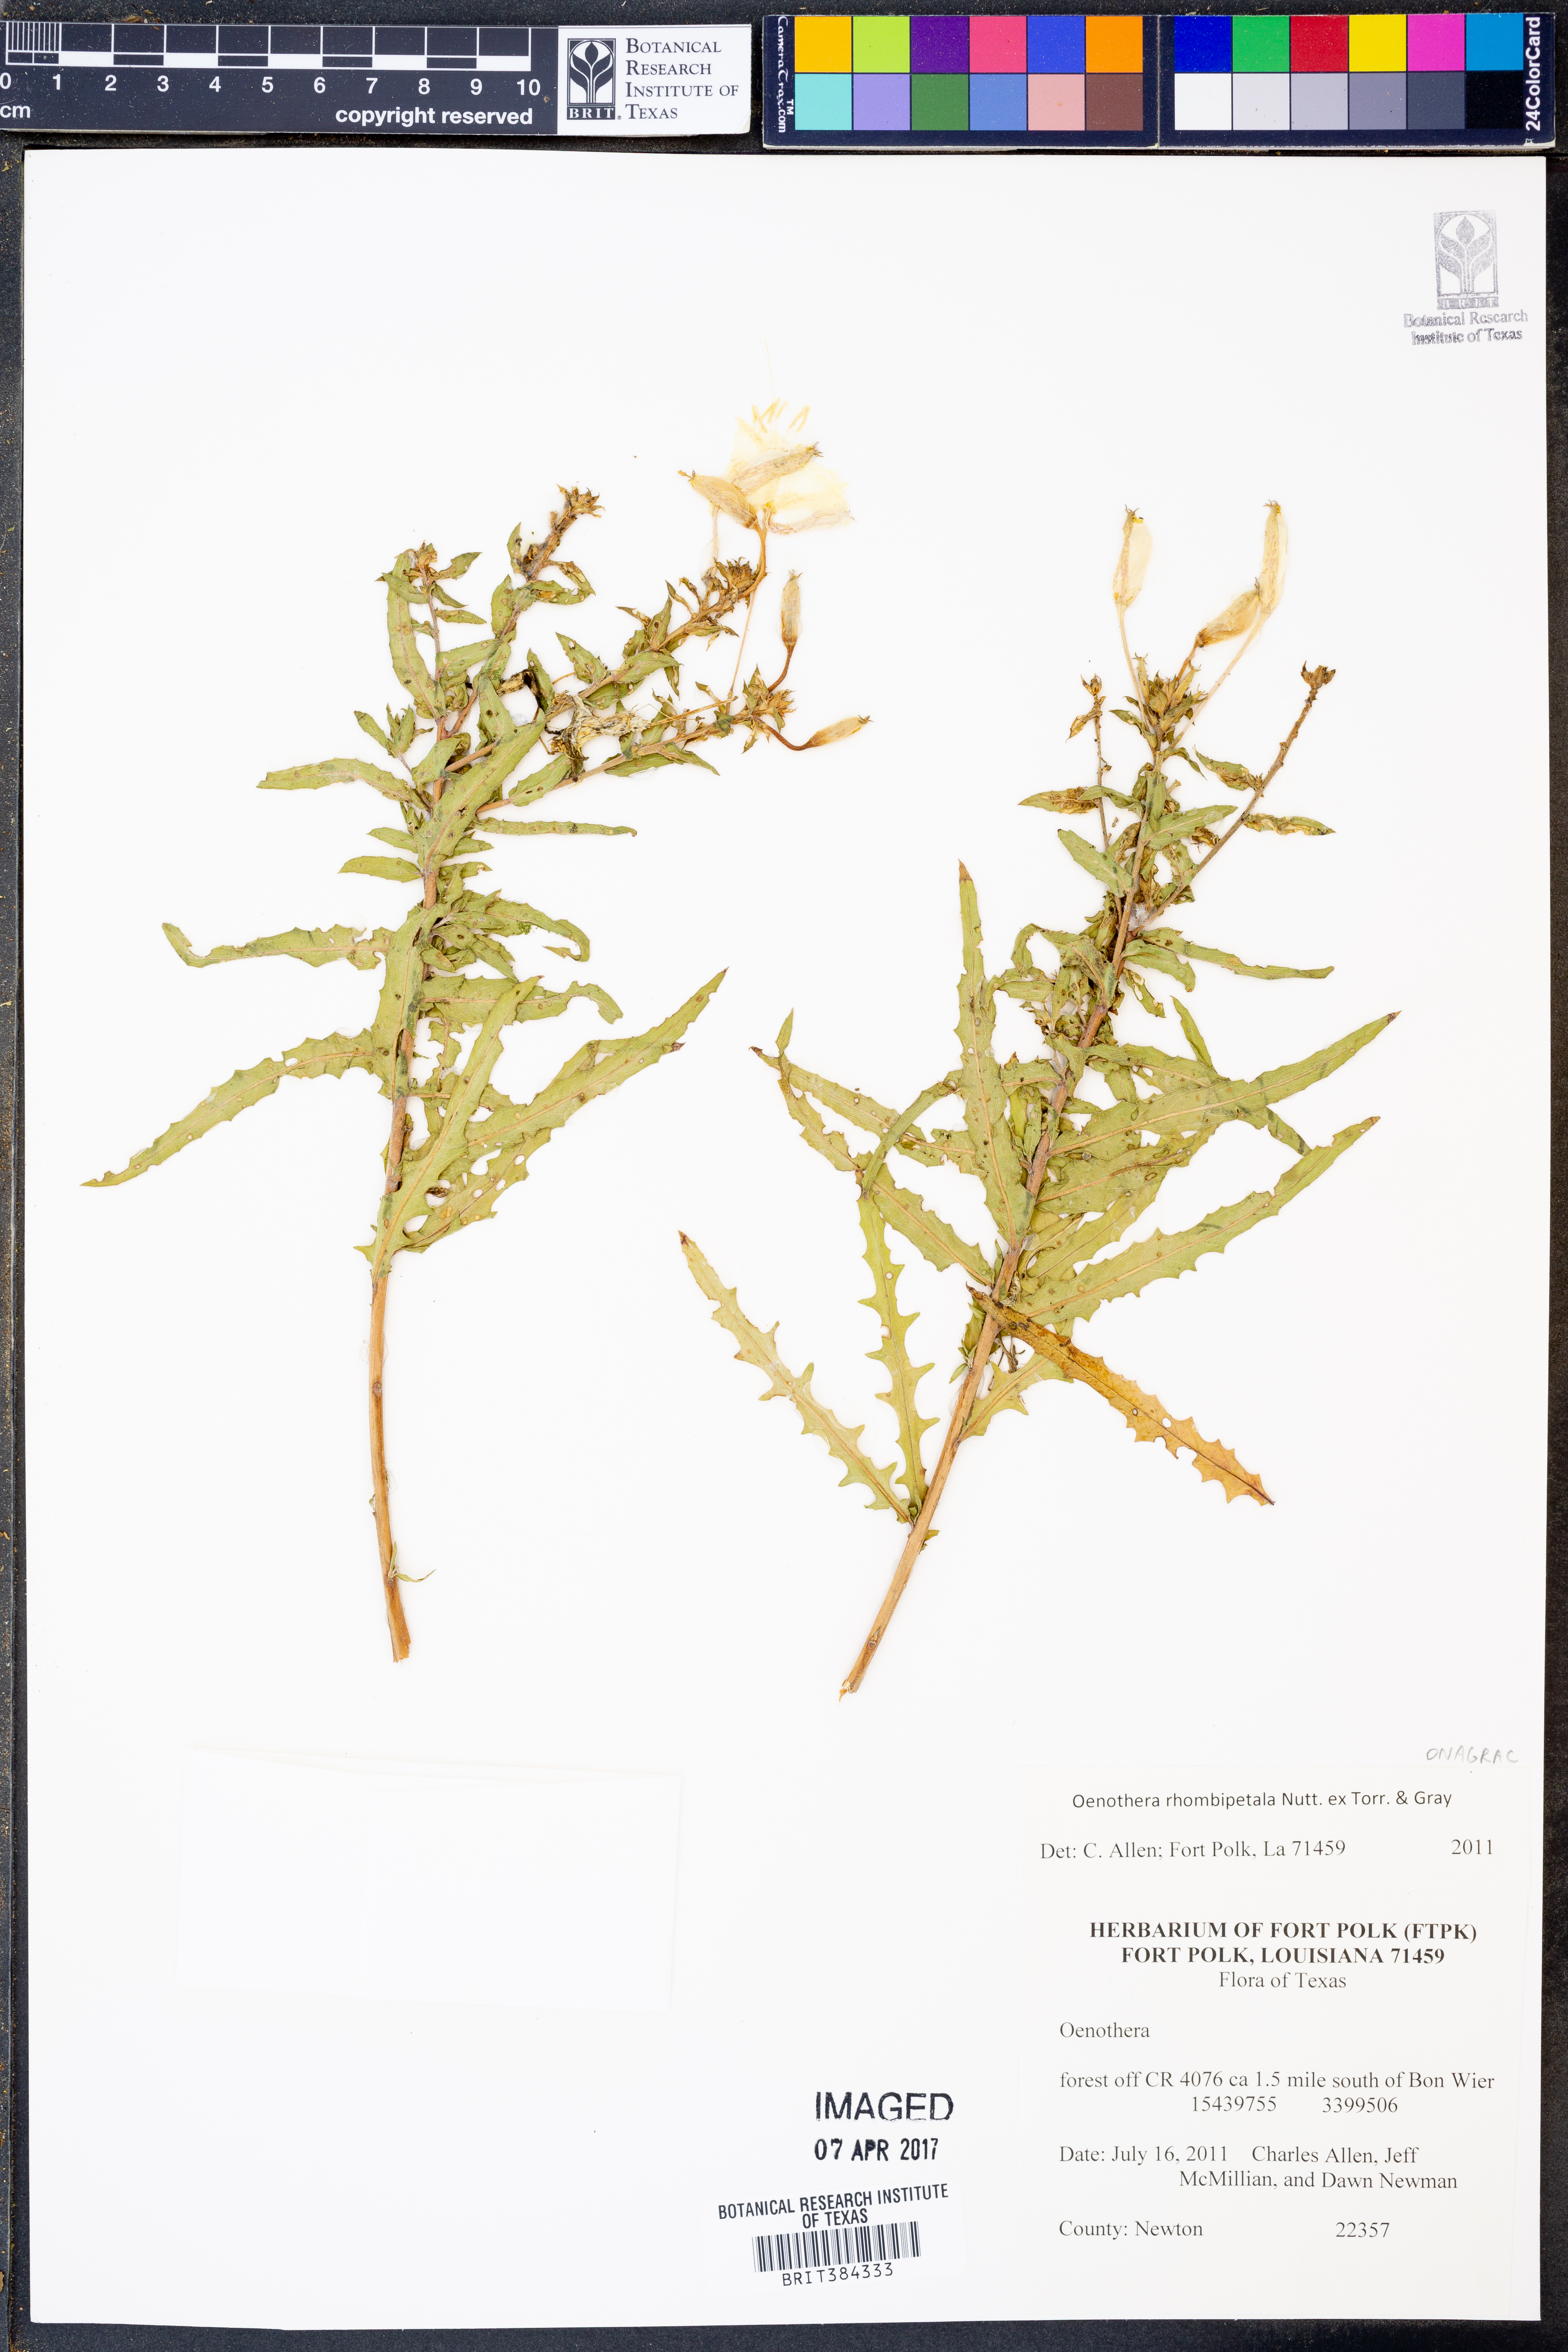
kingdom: Plantae
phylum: Tracheophyta
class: Magnoliopsida
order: Myrtales
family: Onagraceae
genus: Oenothera
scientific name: Oenothera rhombipetala
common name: Four-points evening-primrose
